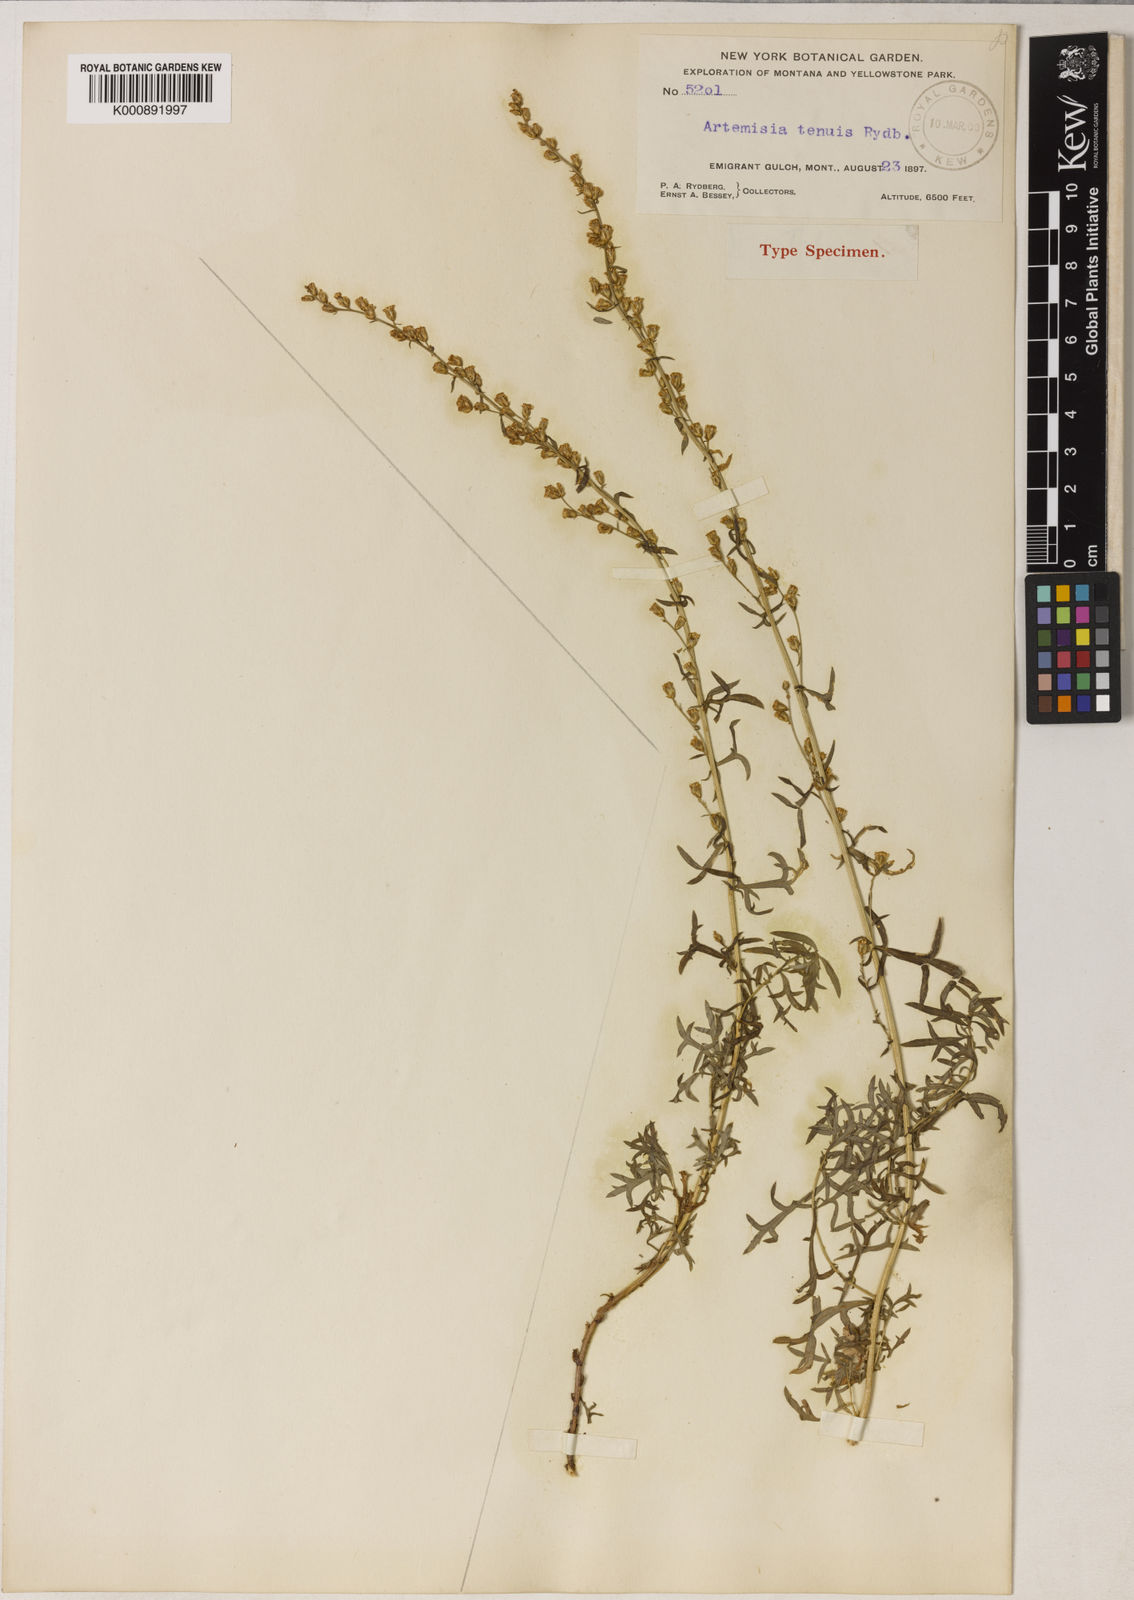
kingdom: Plantae
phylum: Tracheophyta
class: Magnoliopsida
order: Asterales
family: Asteraceae
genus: Artemisia
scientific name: Artemisia michauxiana
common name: Lemon sagewort
